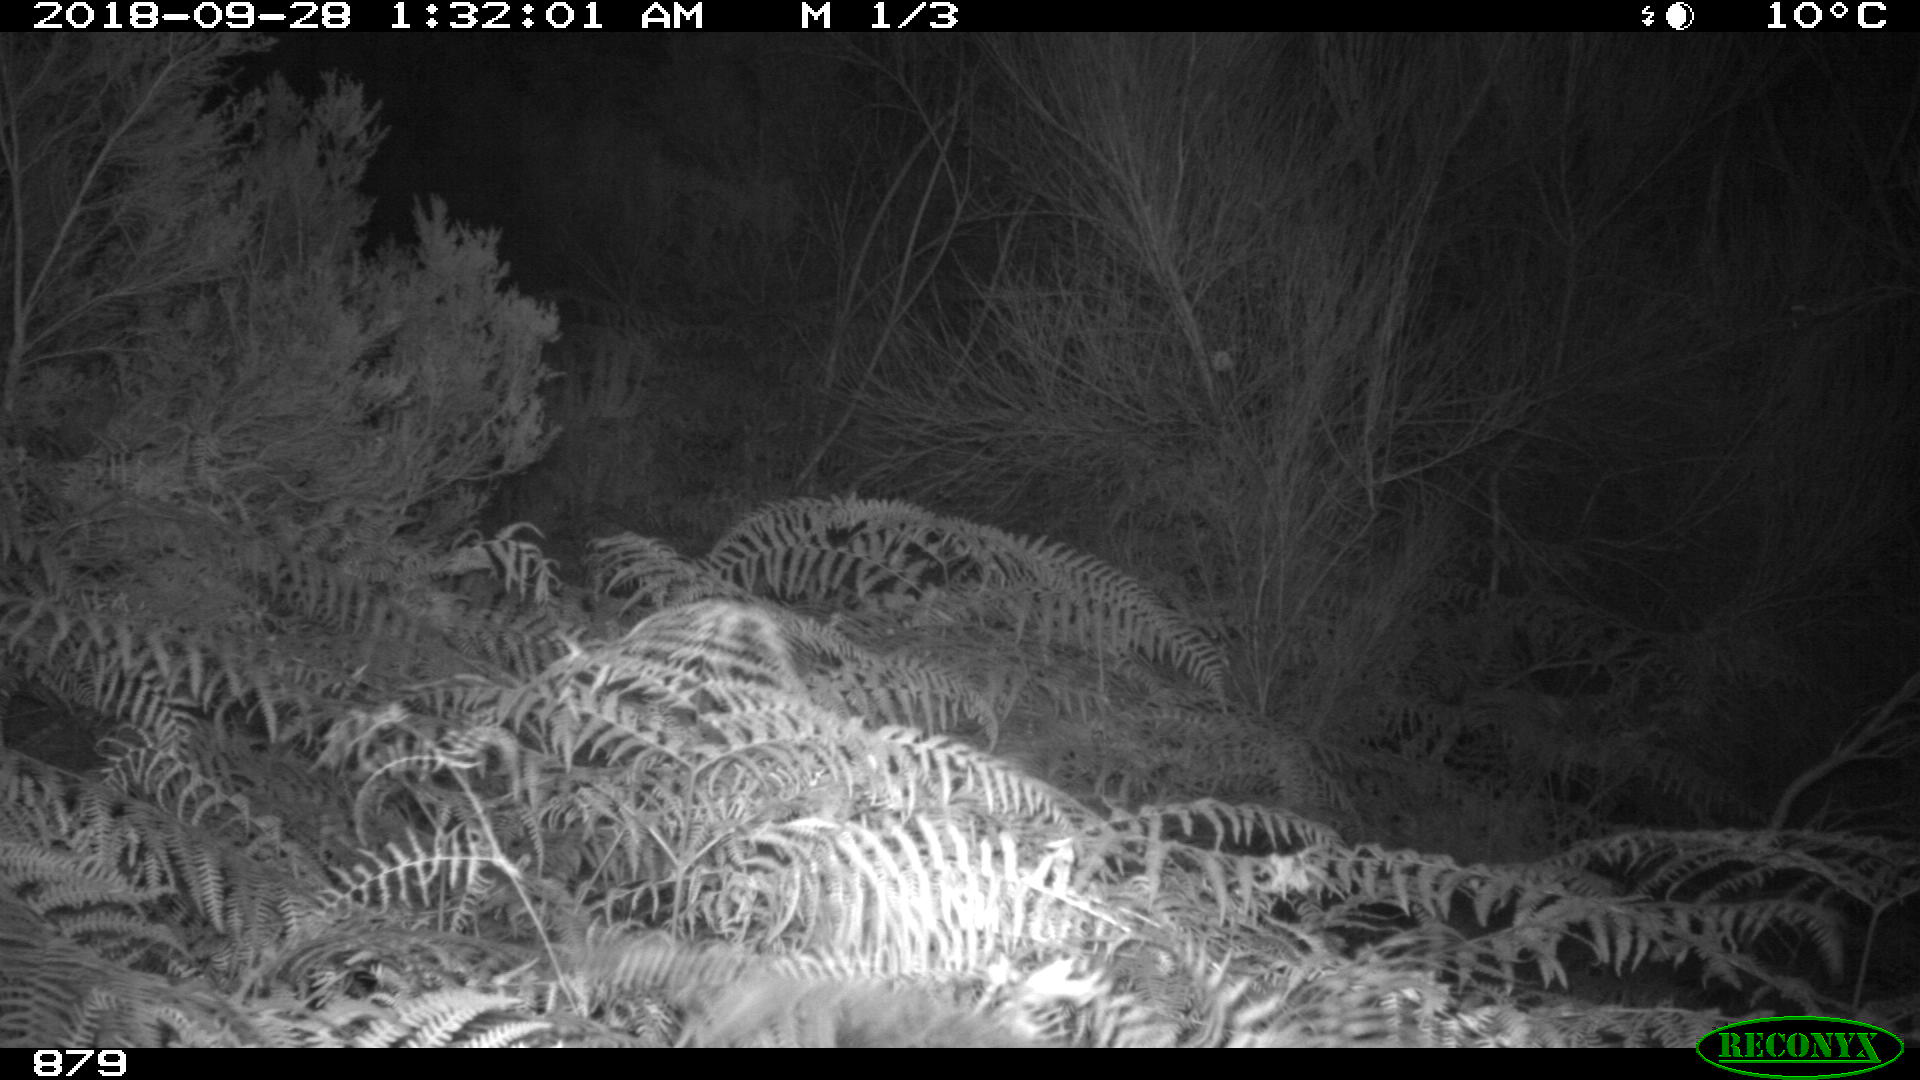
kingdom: Animalia
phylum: Chordata
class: Mammalia
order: Artiodactyla
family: Cervidae
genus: Capreolus
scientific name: Capreolus capreolus
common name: Western roe deer
